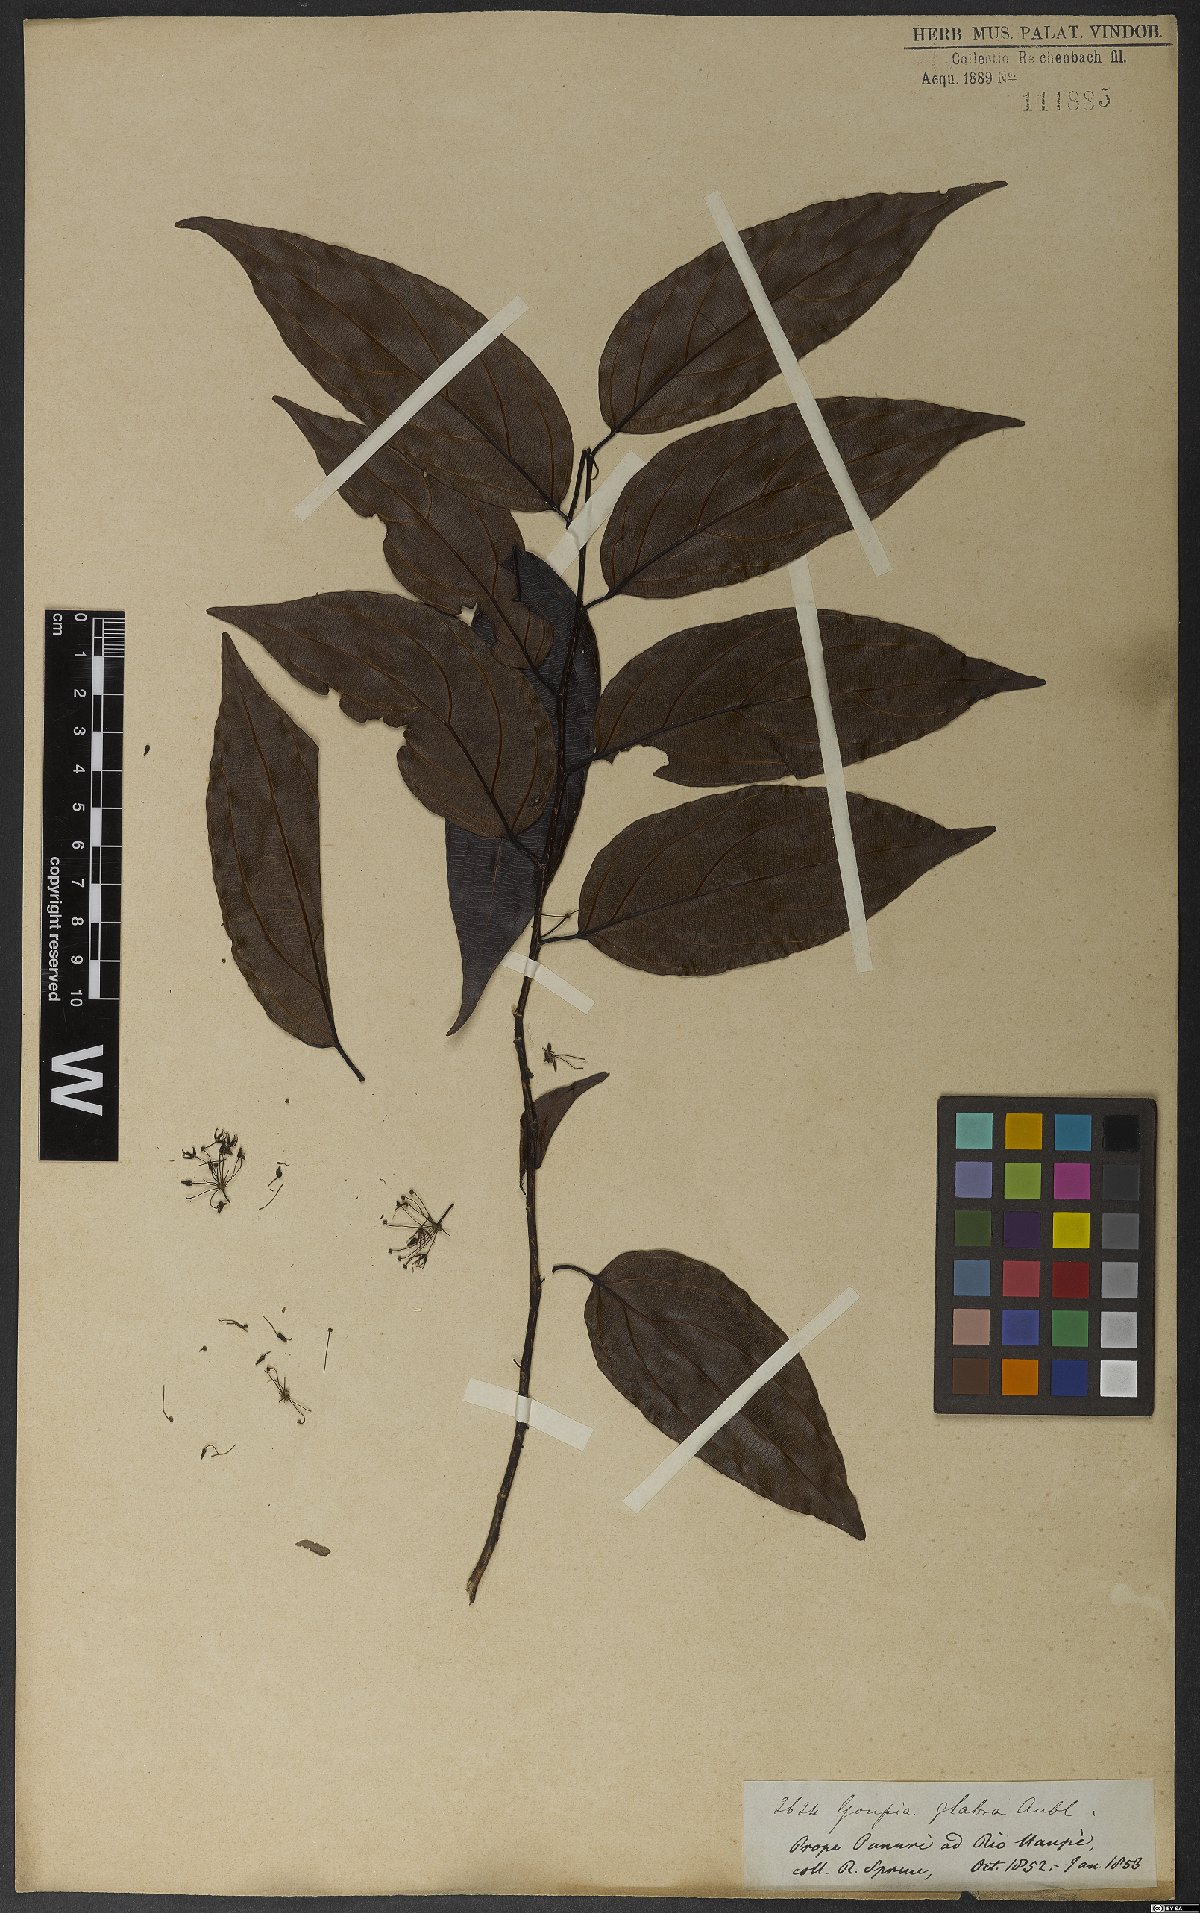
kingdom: Plantae
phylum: Tracheophyta
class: Magnoliopsida
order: Malpighiales
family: Goupiaceae
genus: Goupia
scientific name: Goupia glabra
